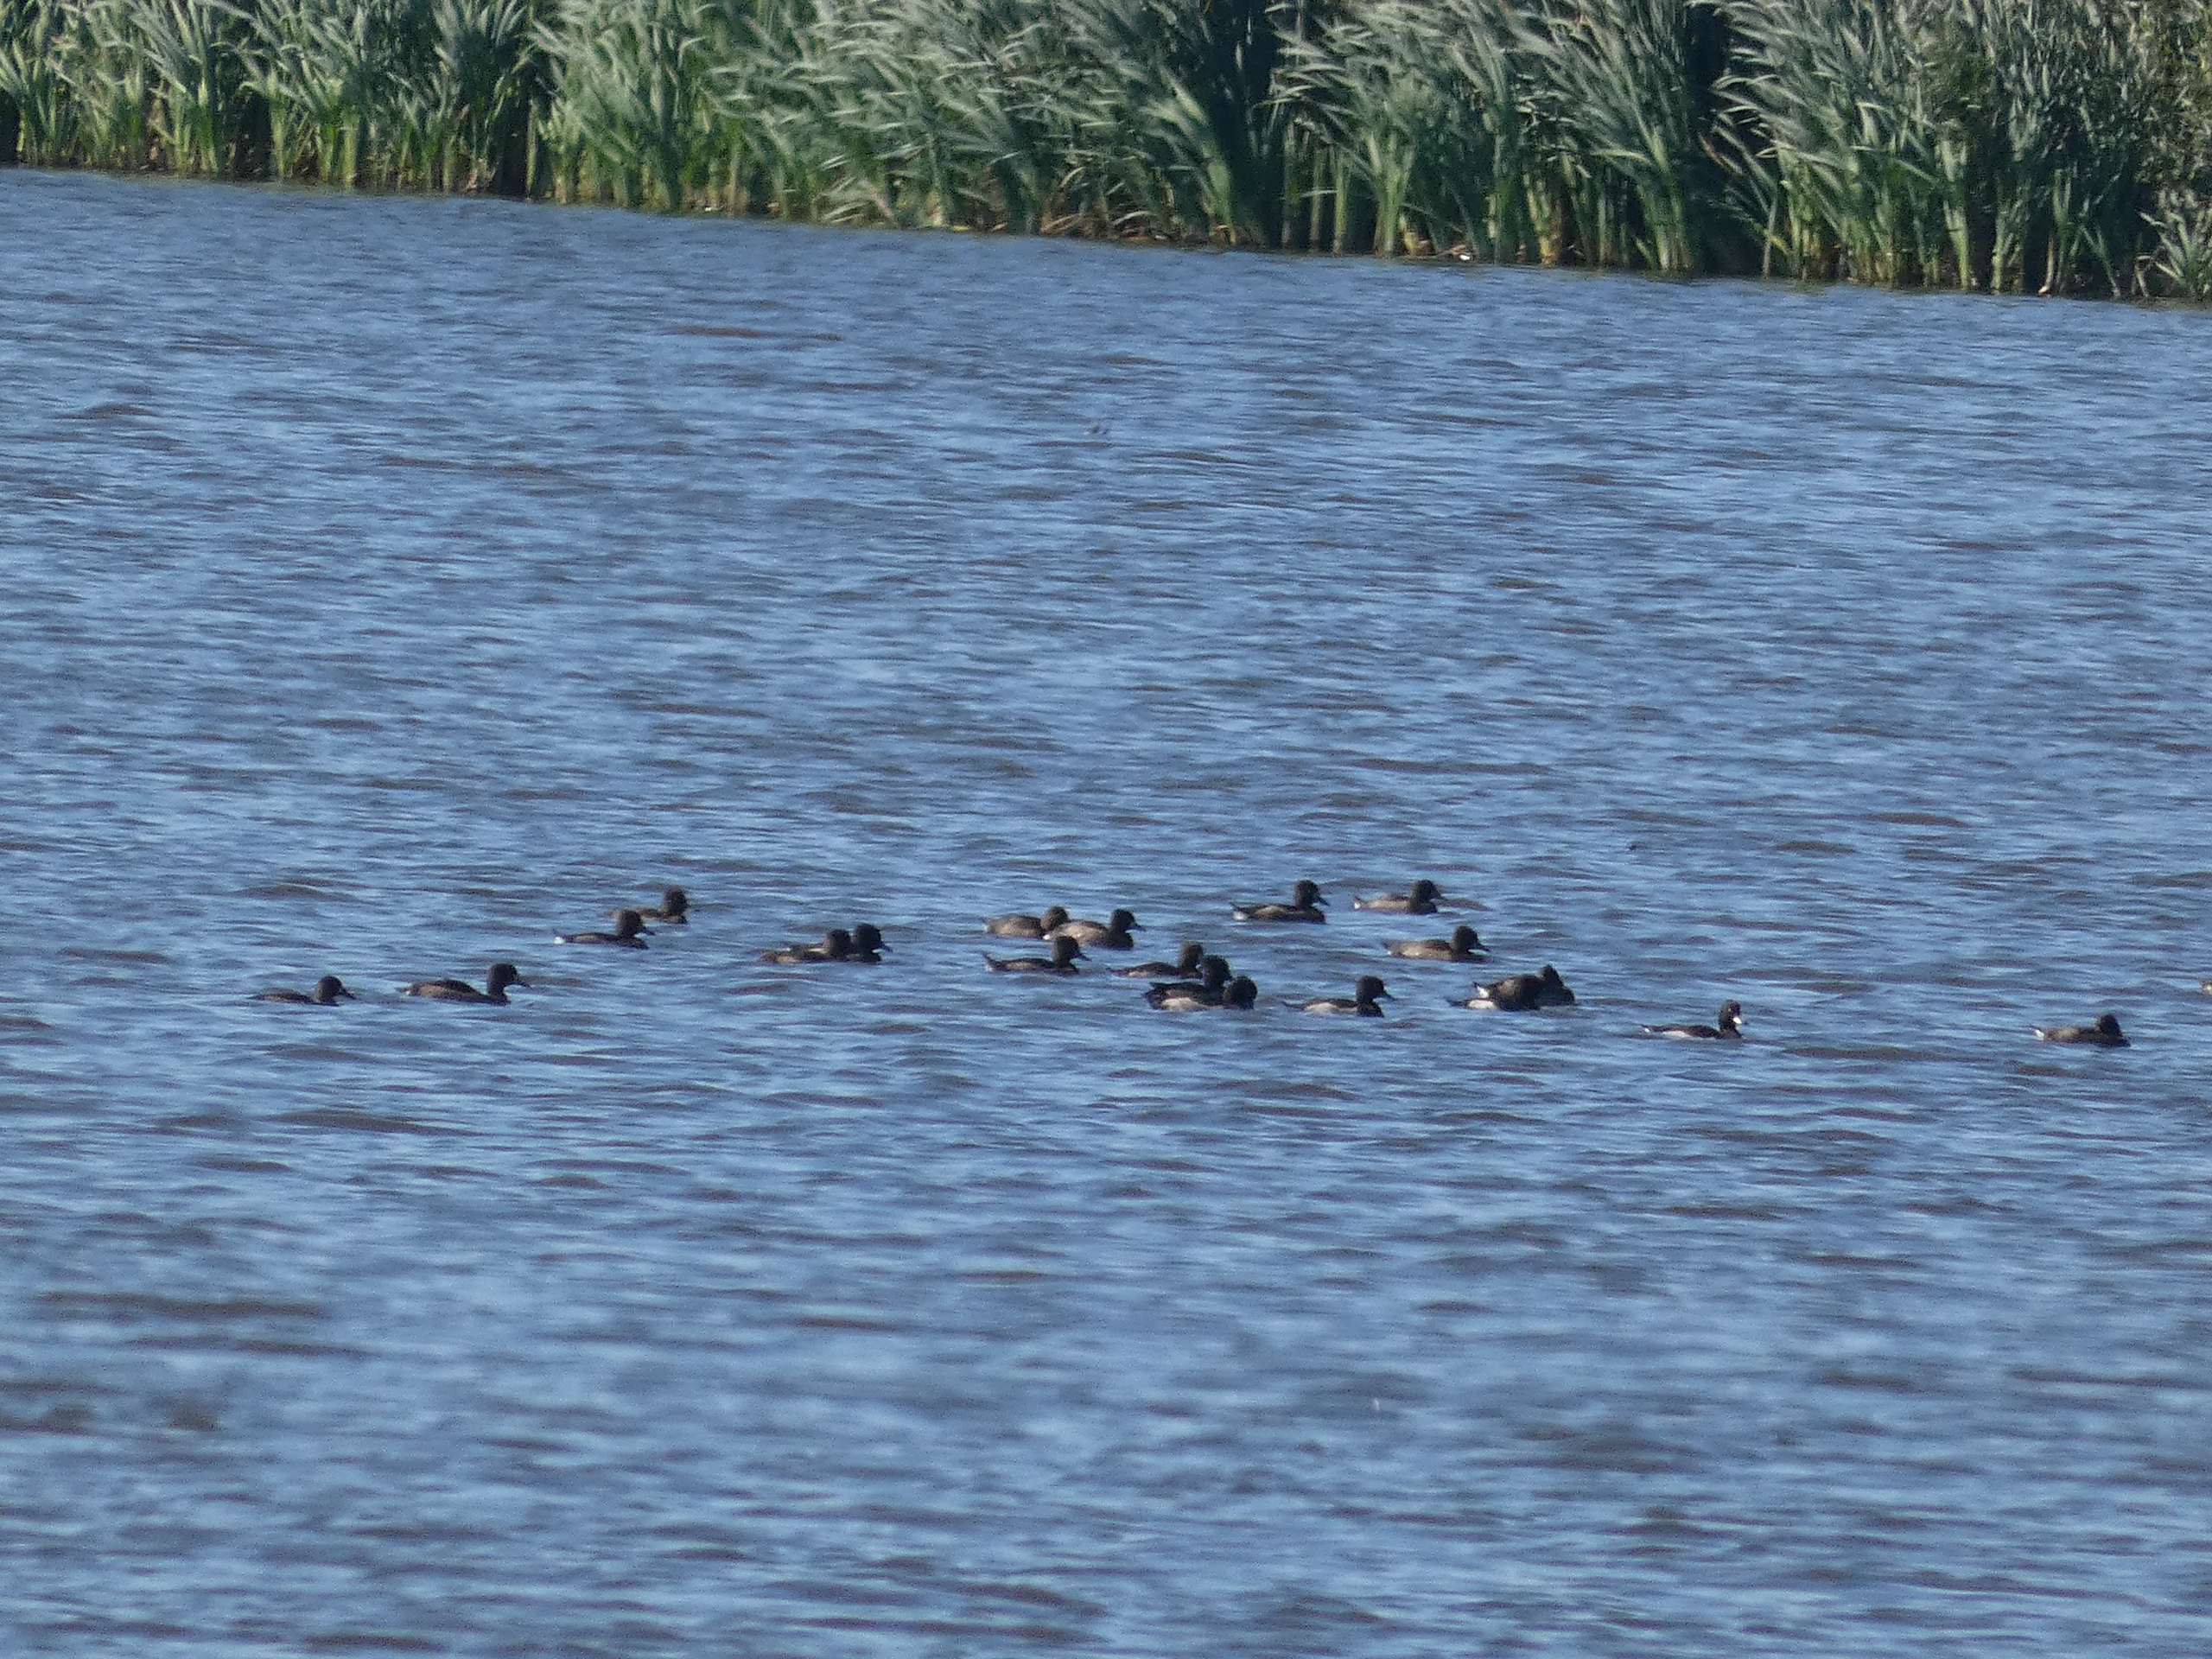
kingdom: Animalia
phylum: Chordata
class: Aves
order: Anseriformes
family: Anatidae
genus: Aythya
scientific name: Aythya fuligula
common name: Troldand
